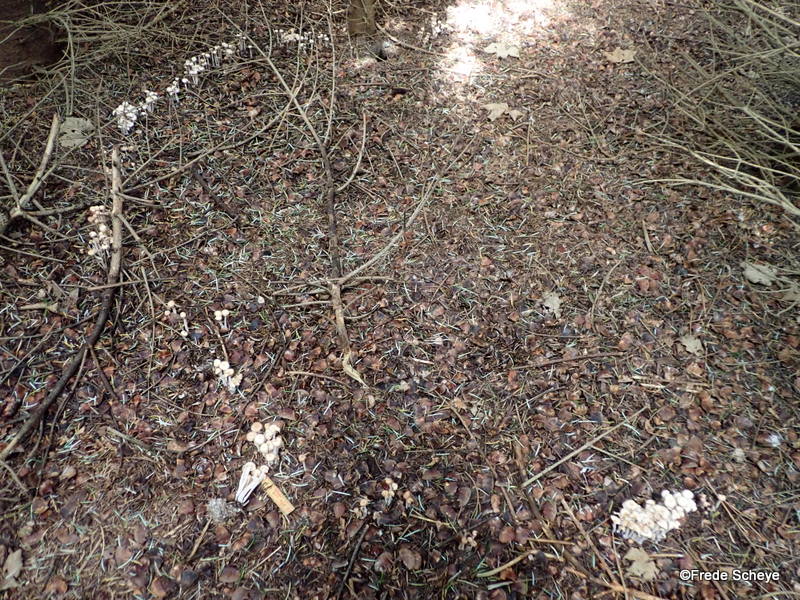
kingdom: Fungi
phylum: Basidiomycota
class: Agaricomycetes
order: Agaricales
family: Omphalotaceae
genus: Collybiopsis
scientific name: Collybiopsis confluens
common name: knippe-fladhat
